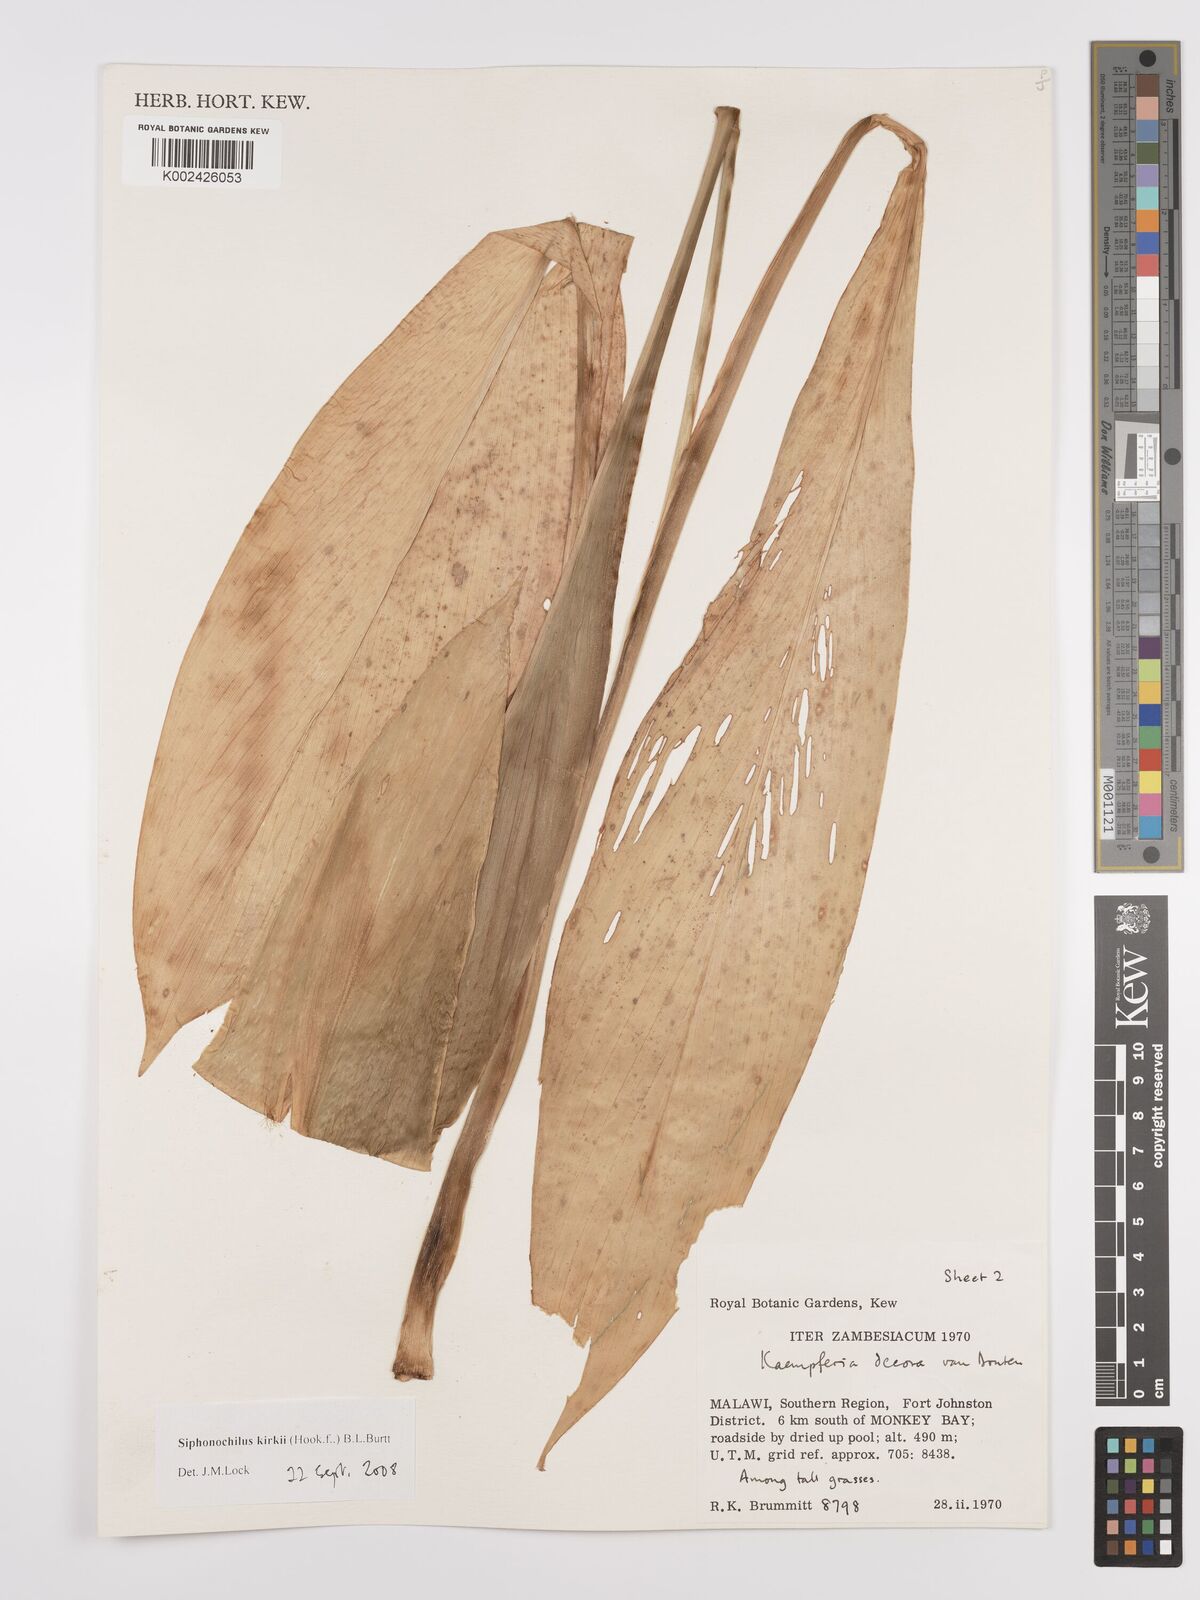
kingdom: Plantae
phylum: Tracheophyta
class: Liliopsida
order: Zingiberales
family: Zingiberaceae
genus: Siphonochilus
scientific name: Siphonochilus kirkii
